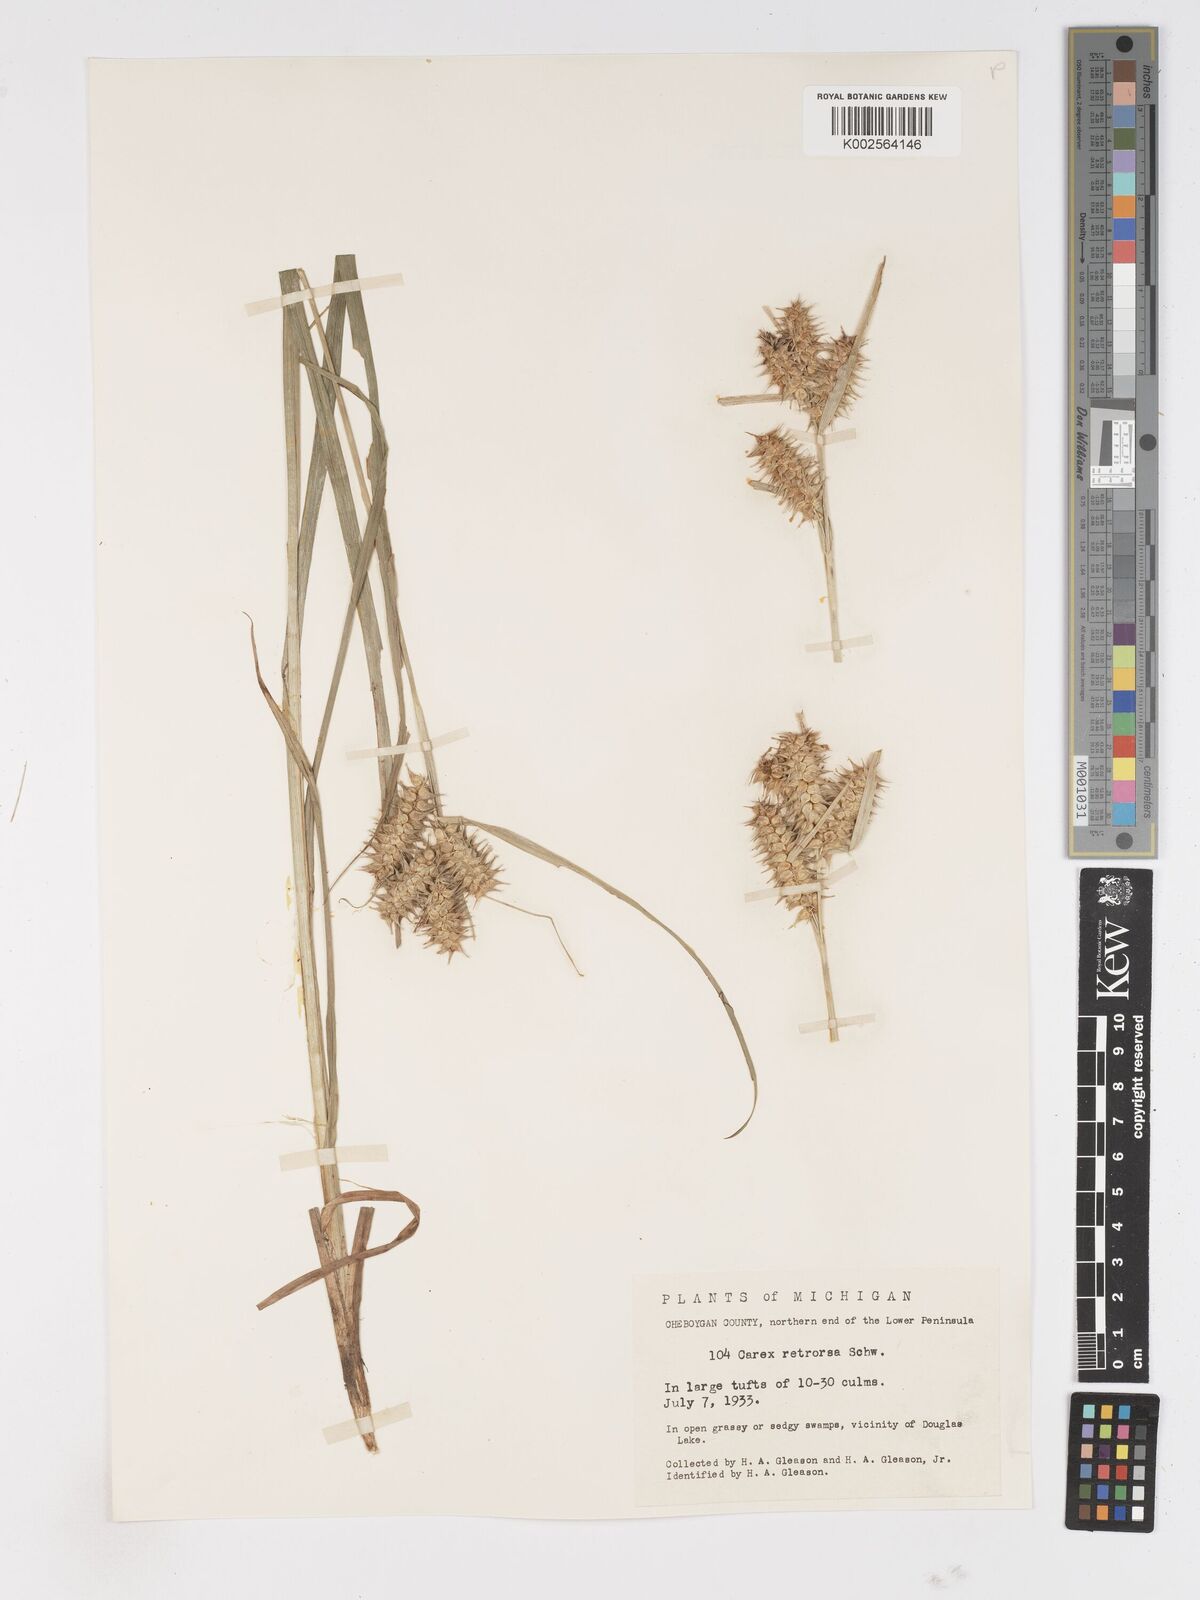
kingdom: Plantae
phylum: Tracheophyta
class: Liliopsida
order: Poales
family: Cyperaceae
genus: Carex
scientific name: Carex retrorsa
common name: Knot-sheath sedge
